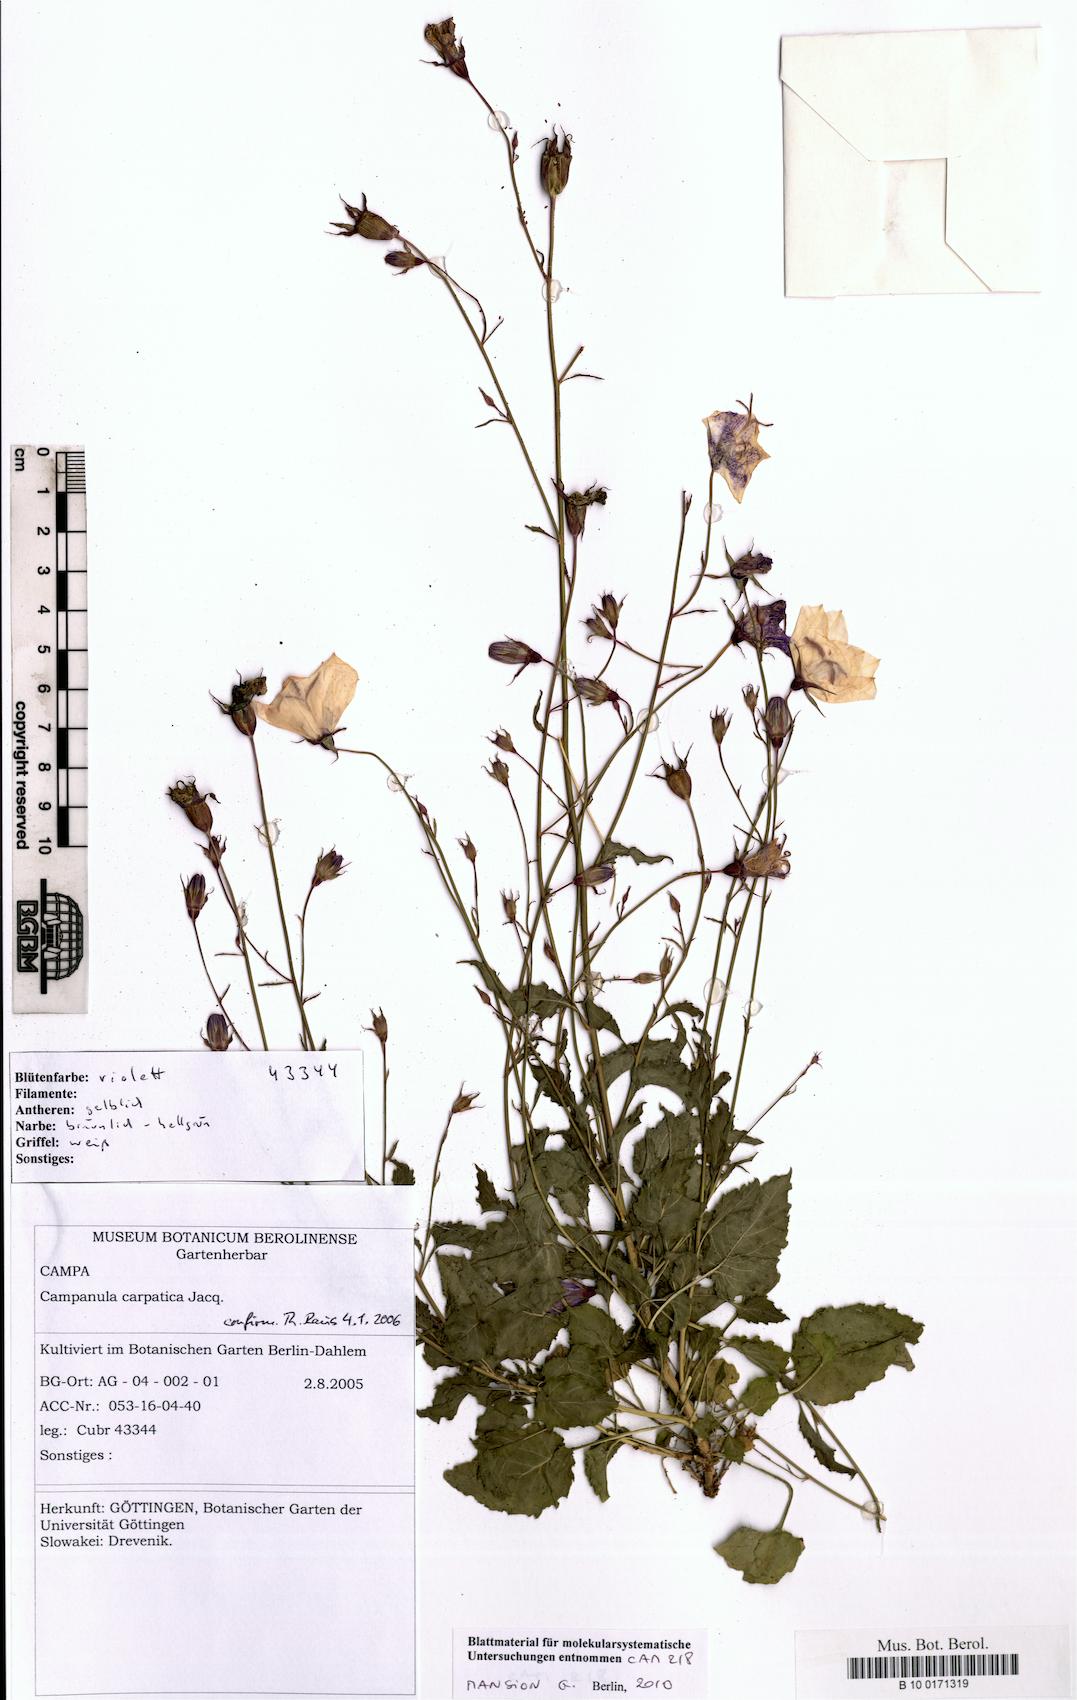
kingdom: Plantae
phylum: Tracheophyta
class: Magnoliopsida
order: Asterales
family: Campanulaceae
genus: Campanula
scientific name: Campanula carpatica
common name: Tussock bellflower
